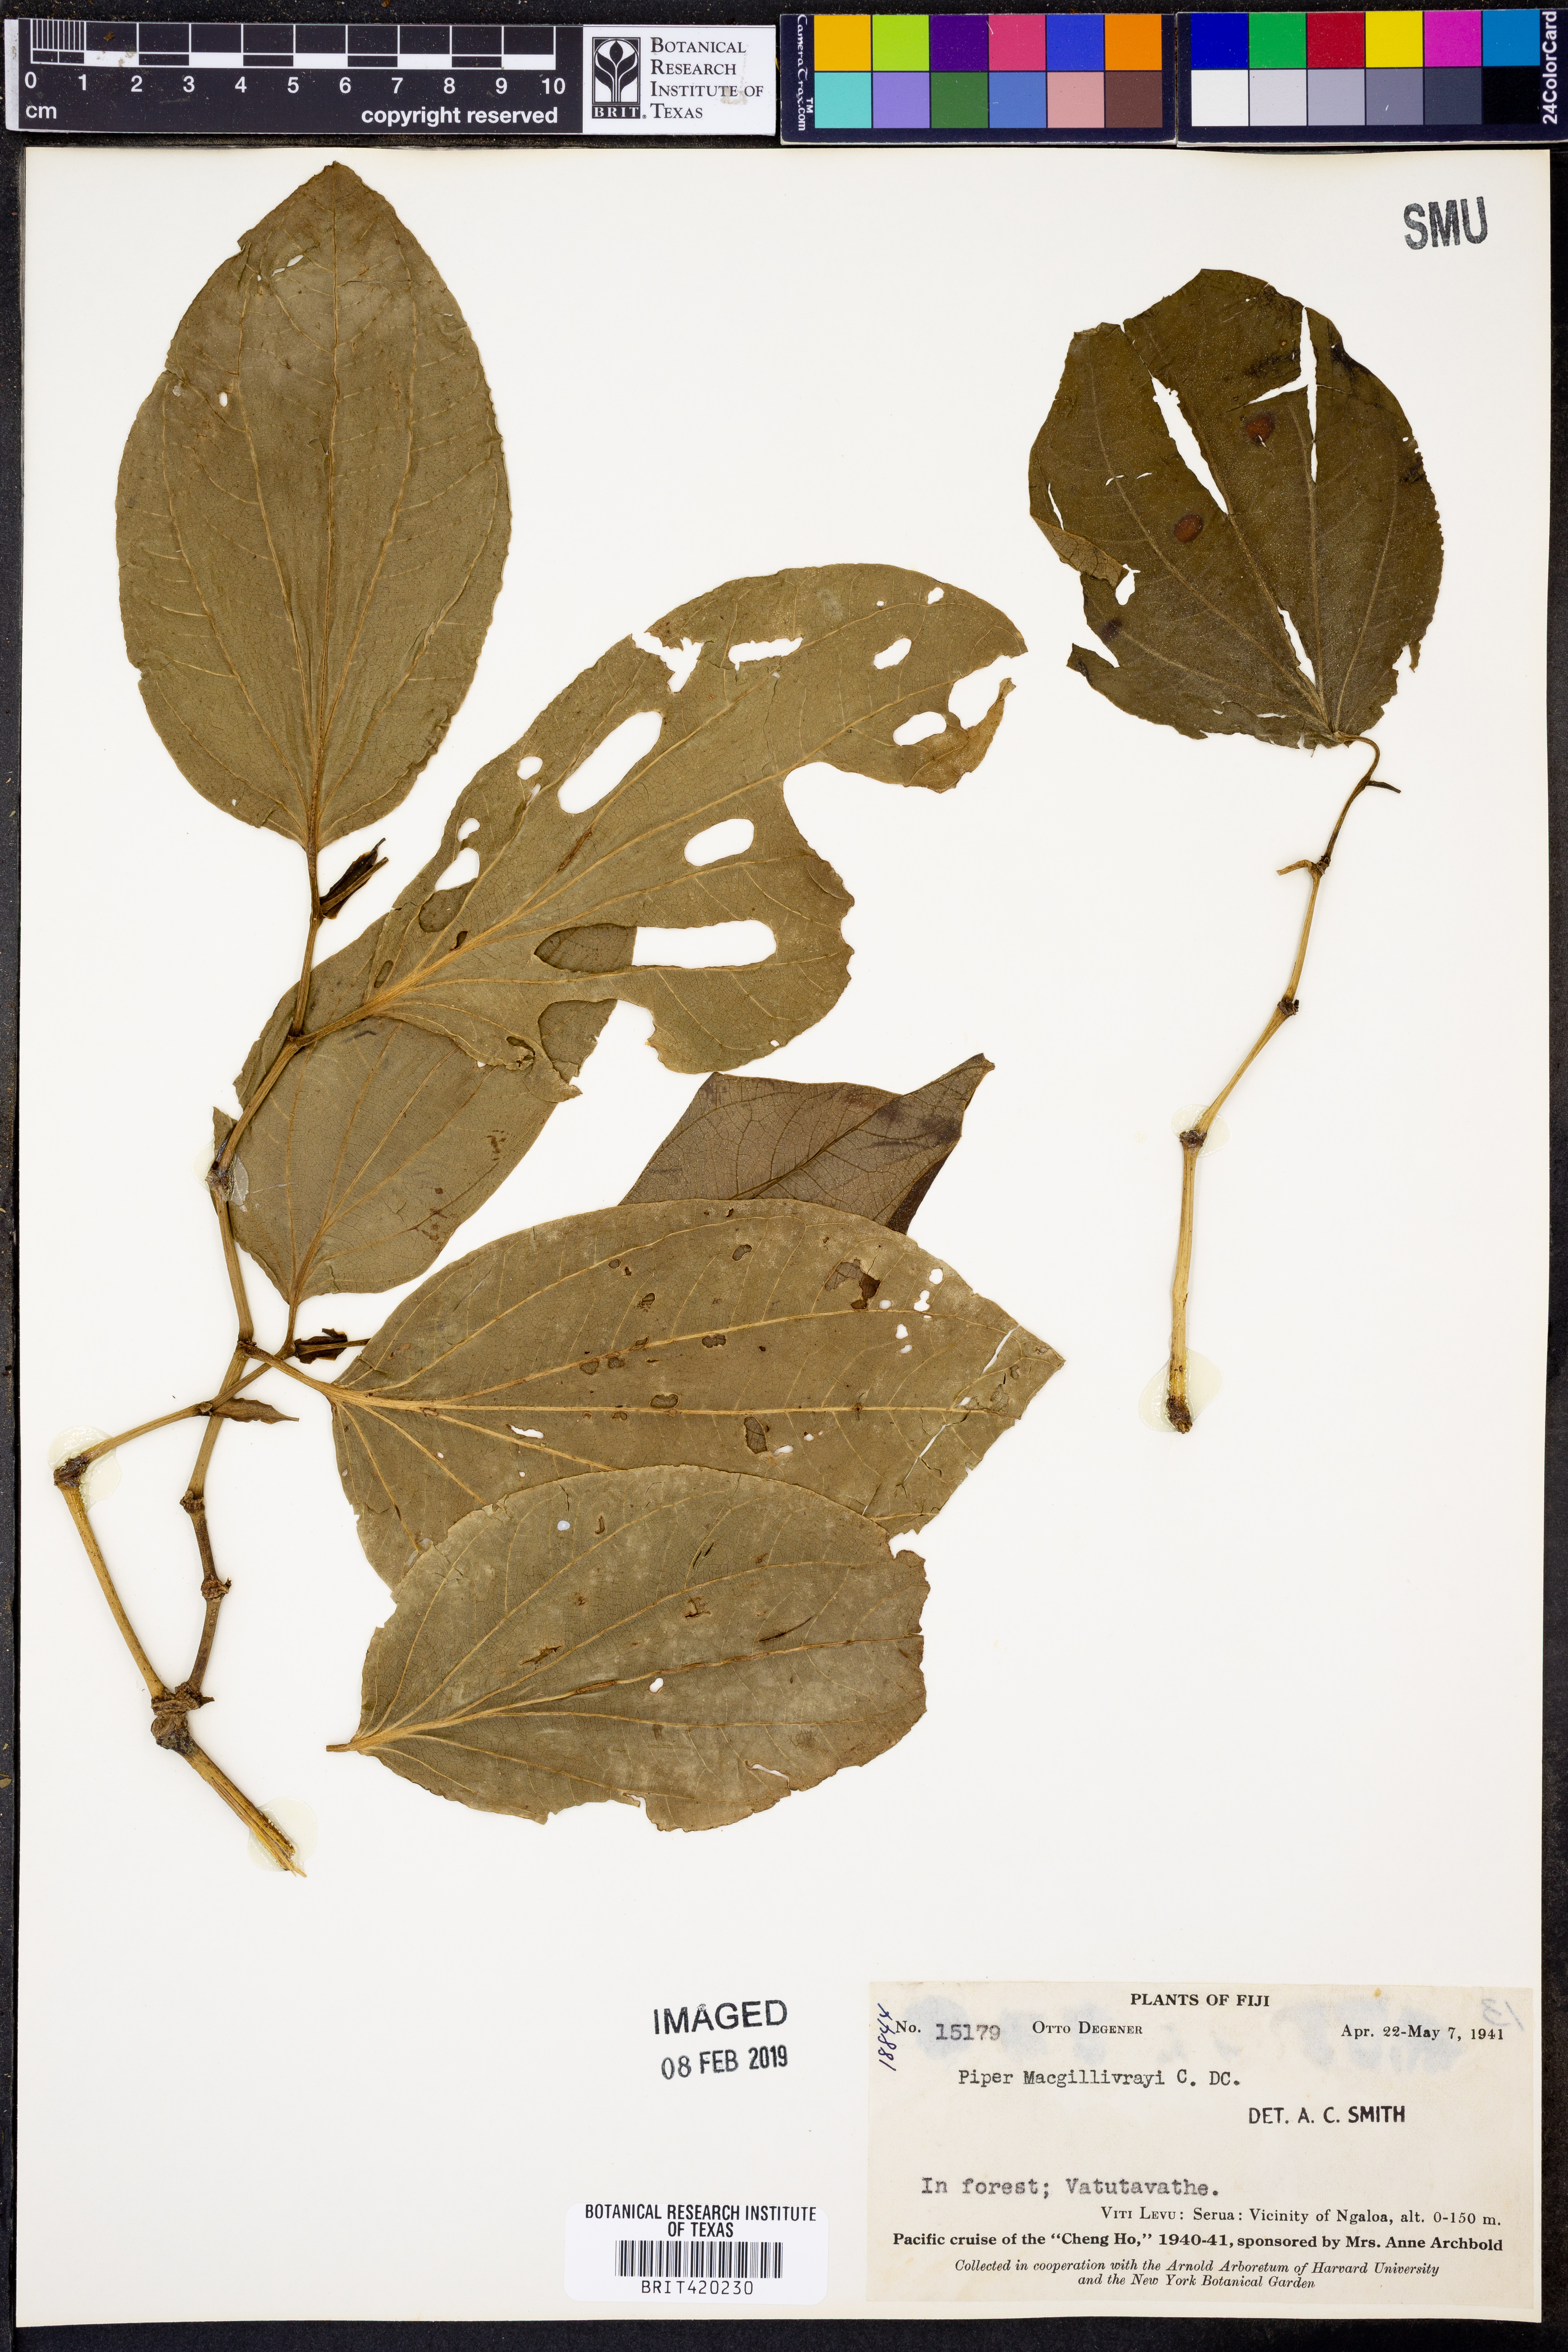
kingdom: Plantae
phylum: Tracheophyta
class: Magnoliopsida
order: Piperales
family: Piperaceae
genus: Macropiper
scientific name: Macropiper puberulum
